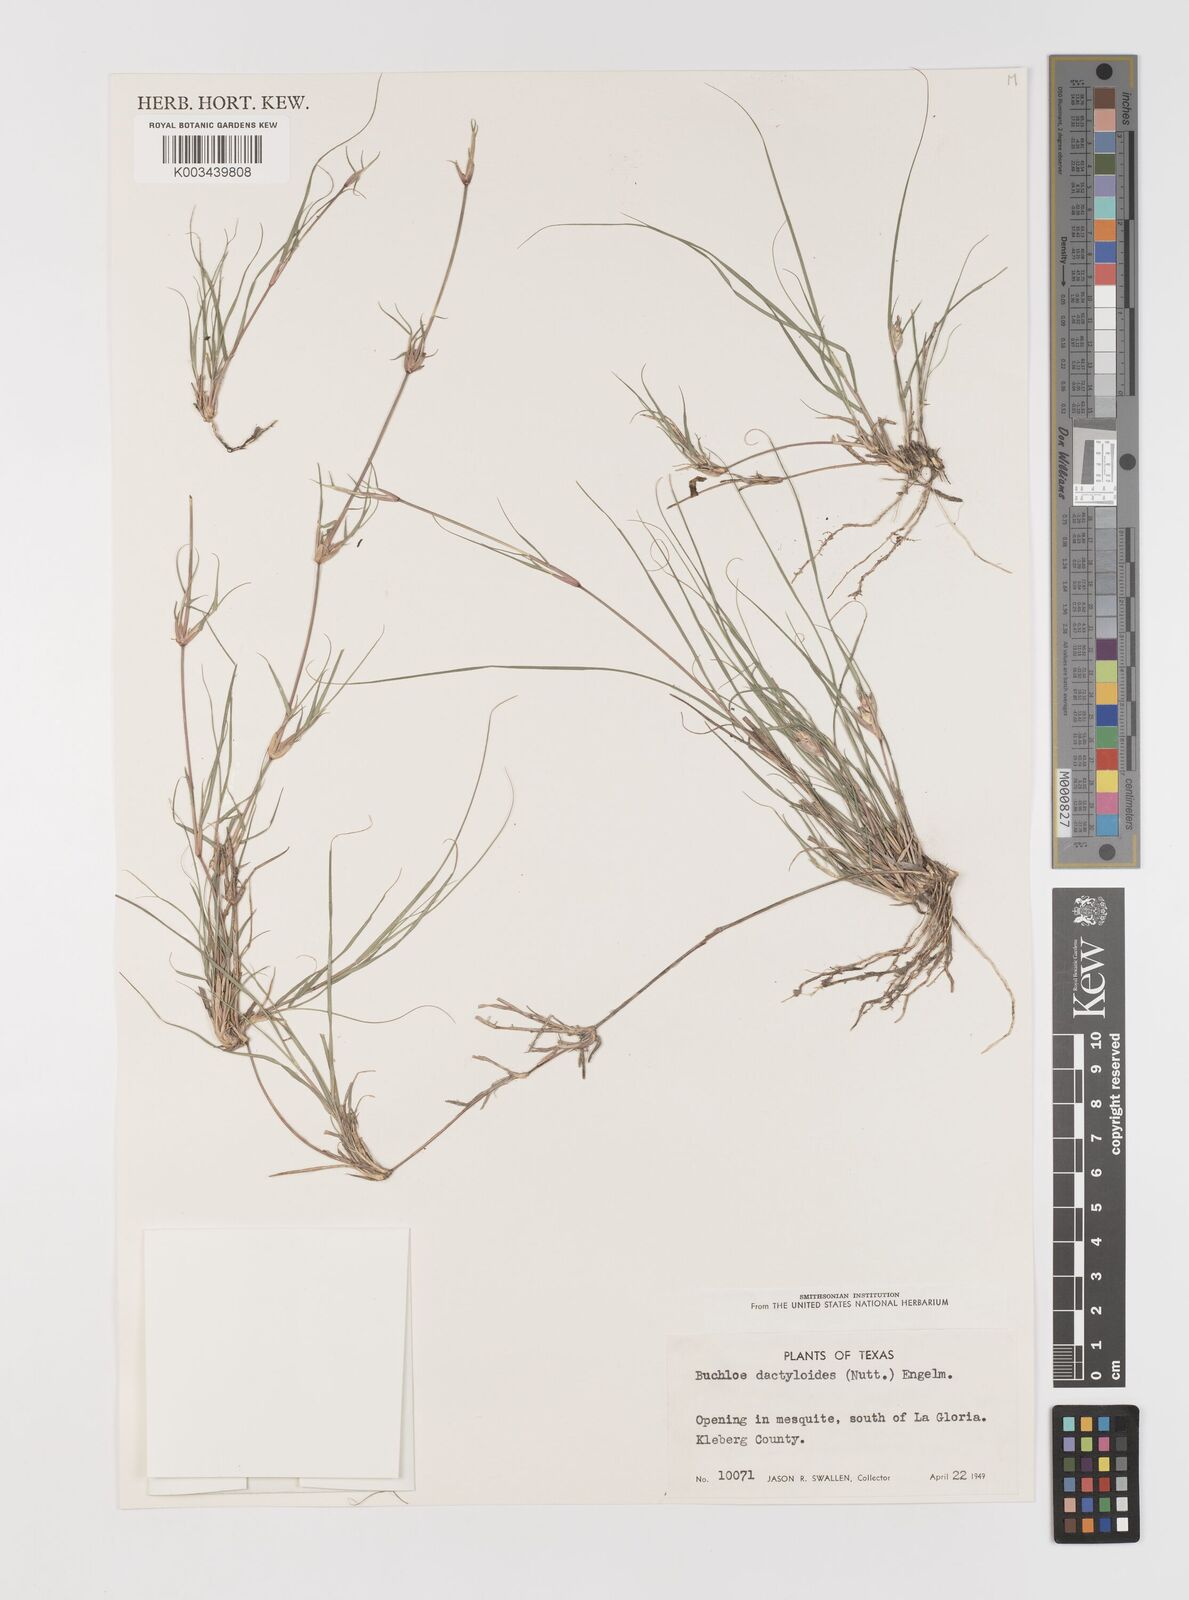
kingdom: Plantae
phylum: Tracheophyta
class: Liliopsida
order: Poales
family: Poaceae
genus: Bouteloua
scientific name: Bouteloua dactyloides
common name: Buffalo grass
